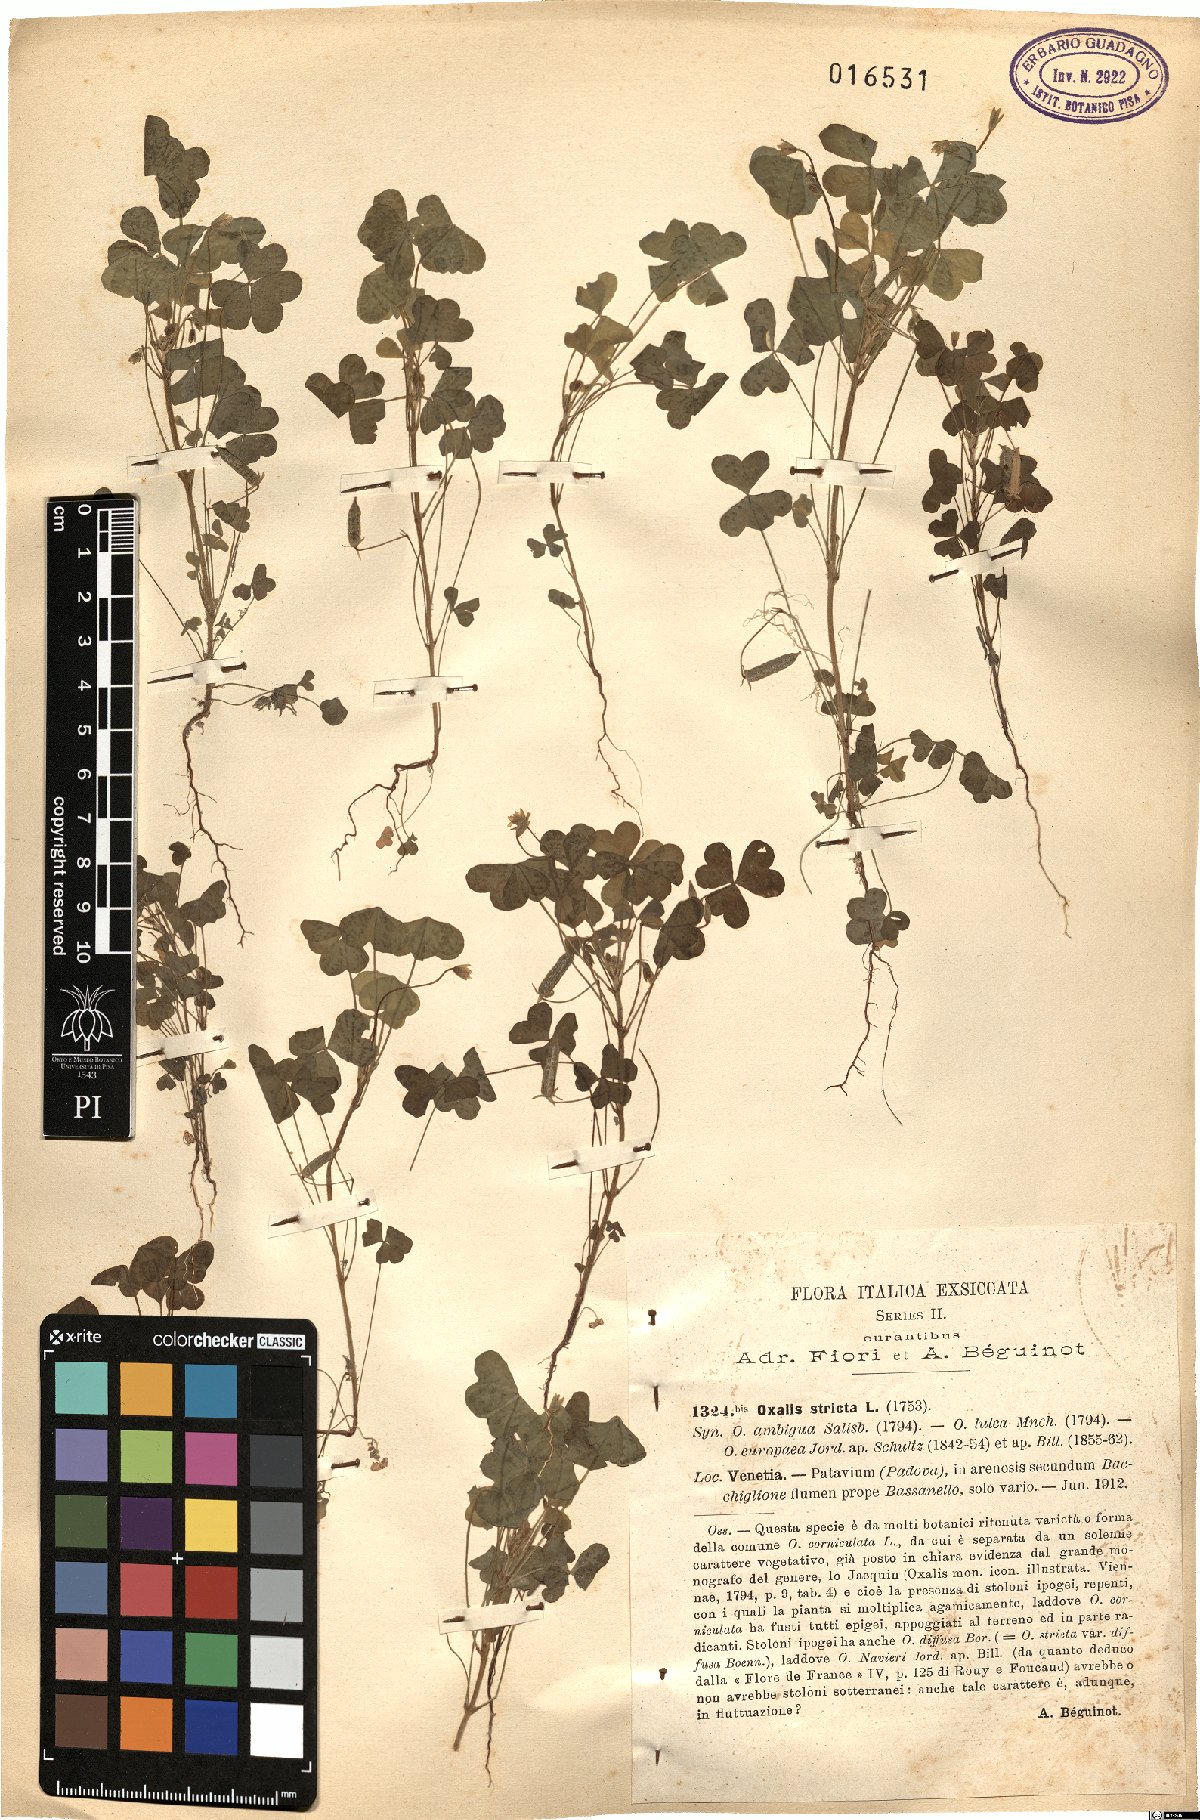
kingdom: Plantae
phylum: Tracheophyta
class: Magnoliopsida
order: Oxalidales
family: Oxalidaceae
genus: Oxalis
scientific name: Oxalis stricta
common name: Upright yellow-sorrel
